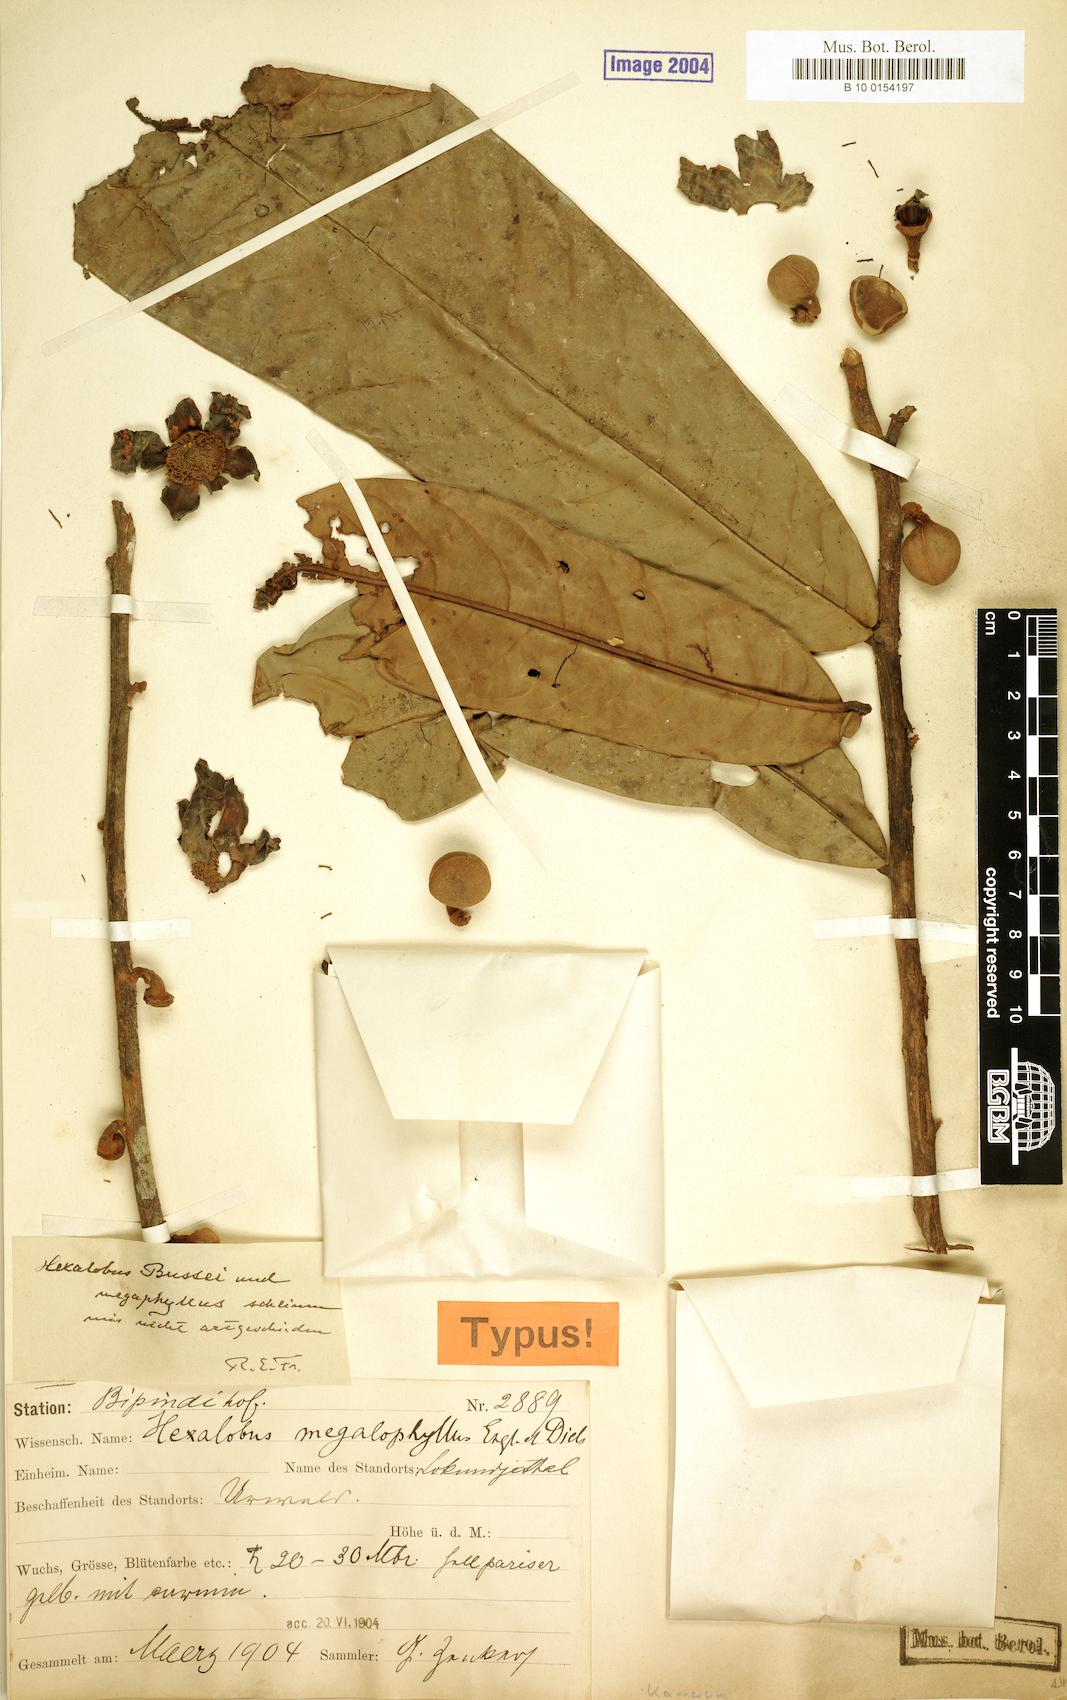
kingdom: Plantae
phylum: Tracheophyta
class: Magnoliopsida
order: Magnoliales
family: Annonaceae
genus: Hexalobus
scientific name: Hexalobus bussei
